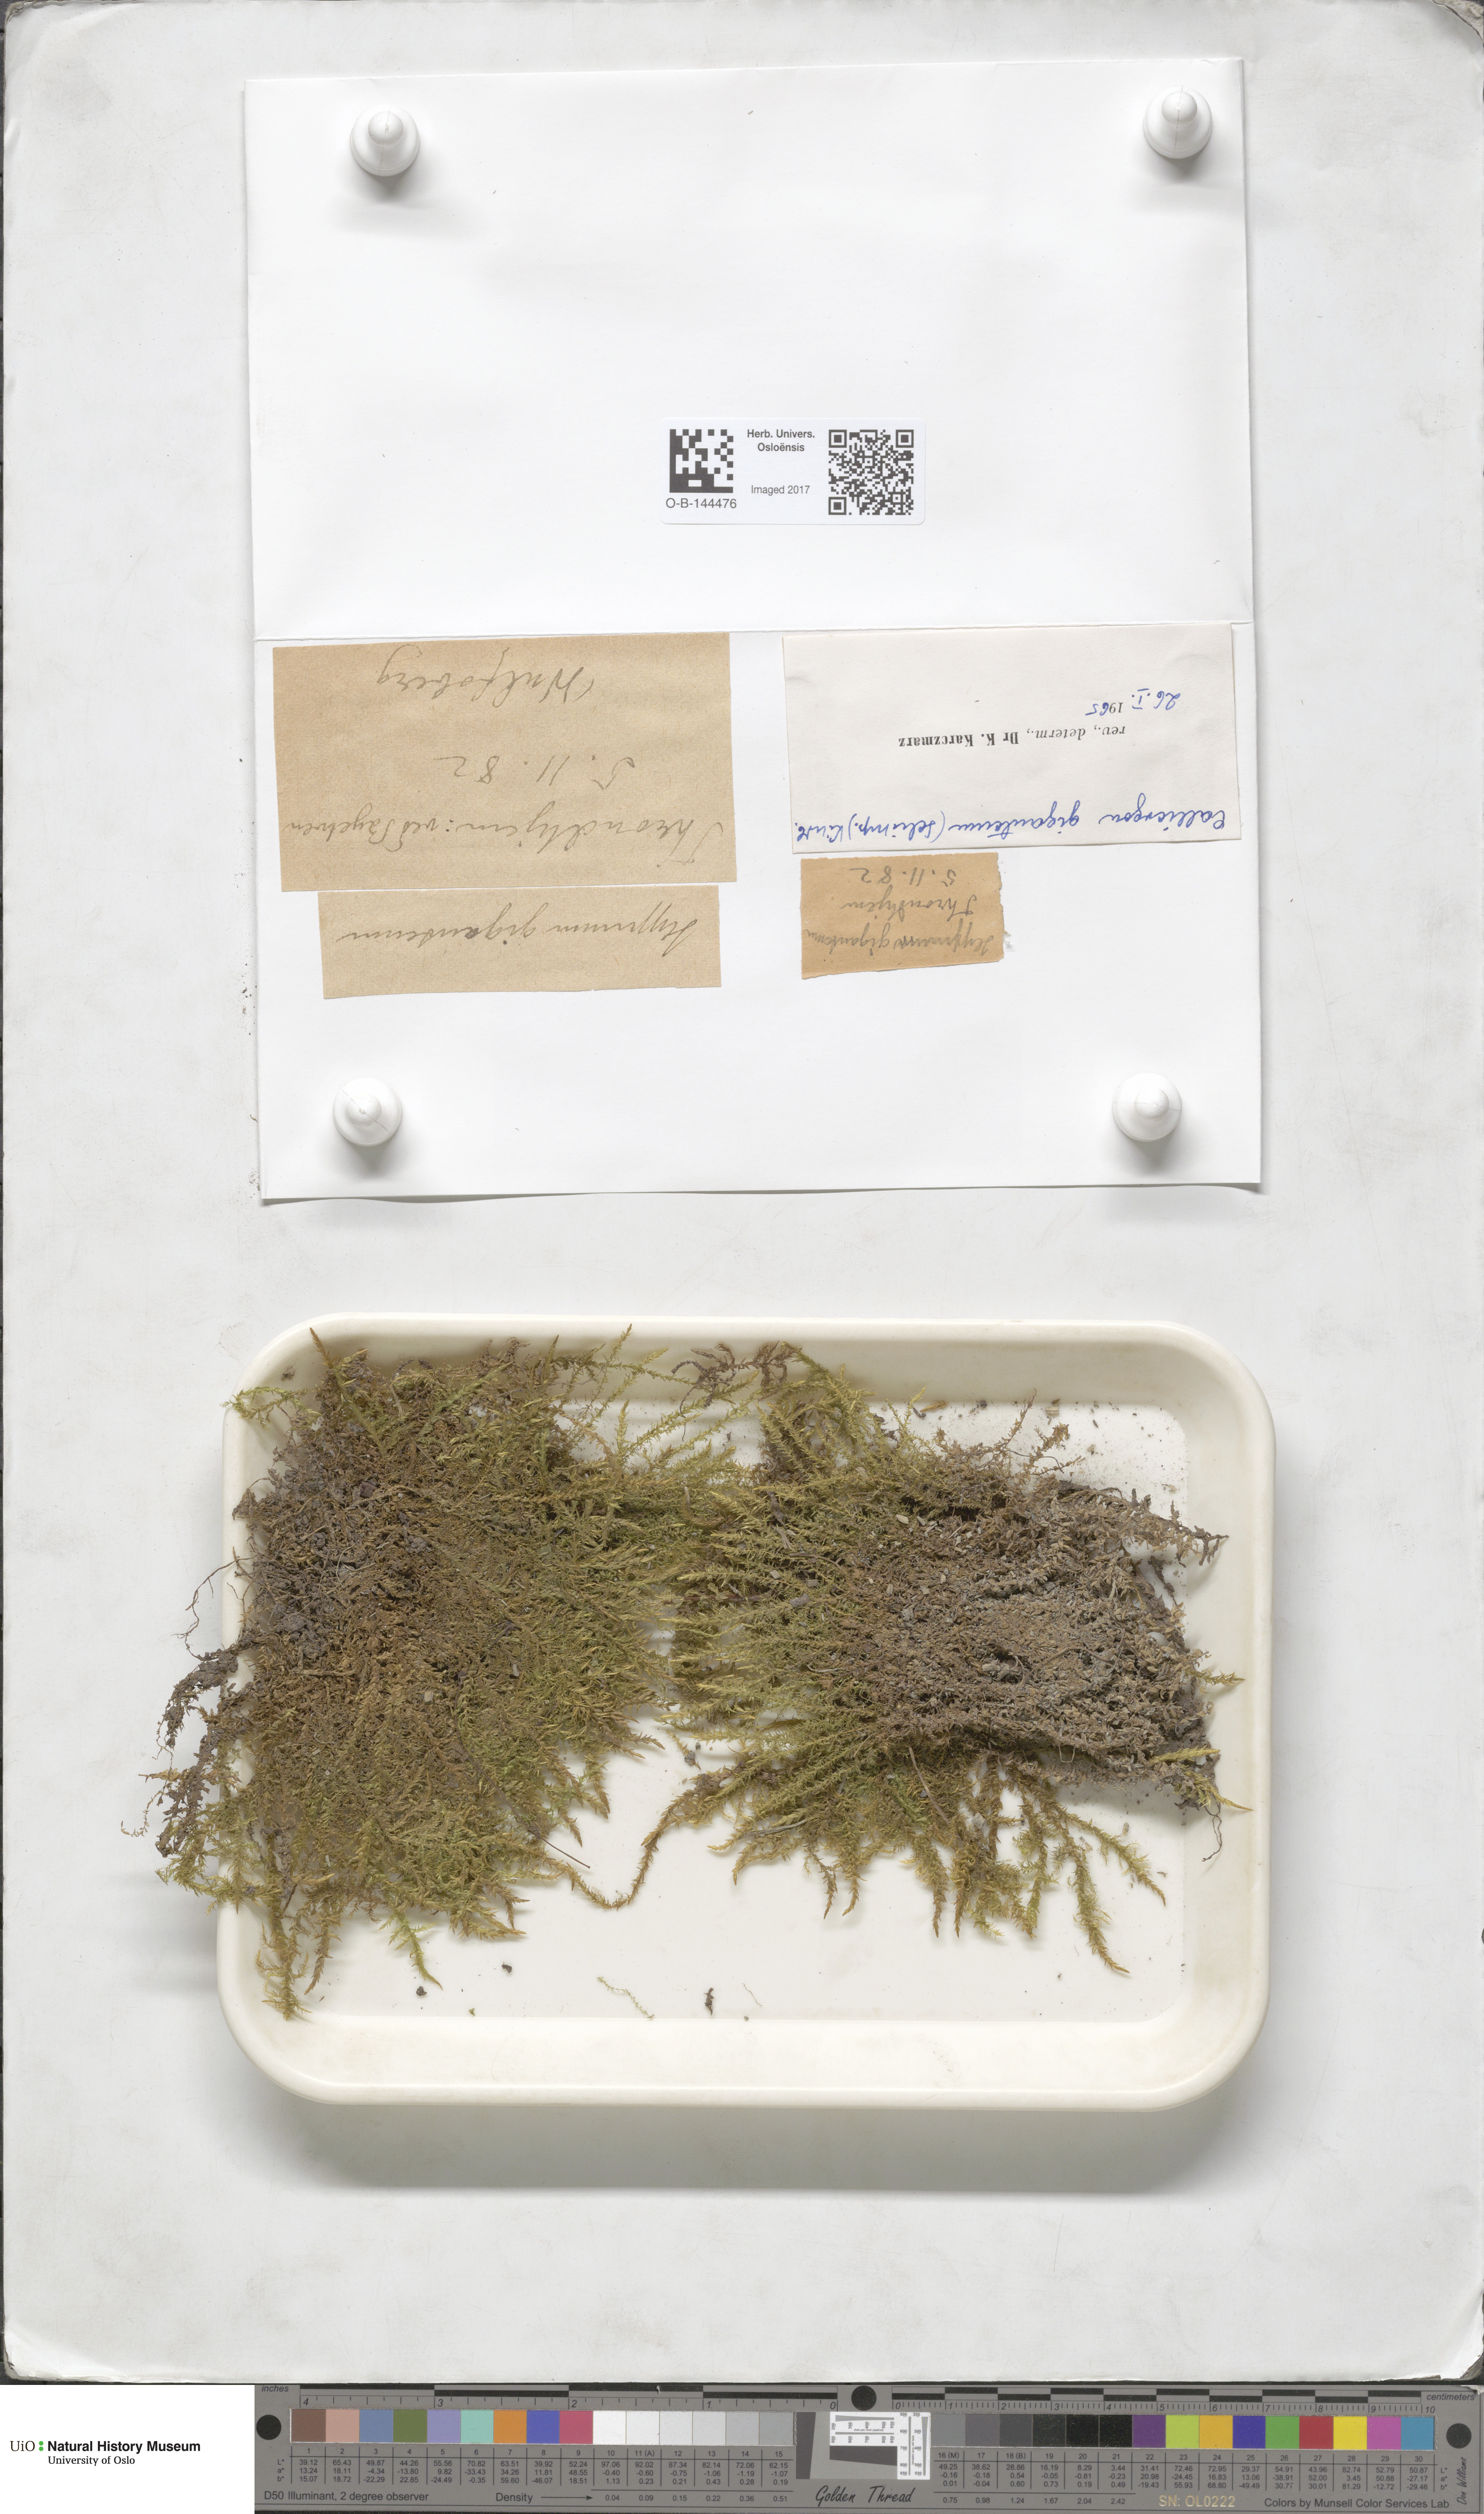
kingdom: Plantae
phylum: Bryophyta
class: Bryopsida
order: Hypnales
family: Calliergonaceae
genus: Calliergon
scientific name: Calliergon giganteum
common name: Giant spear moss
